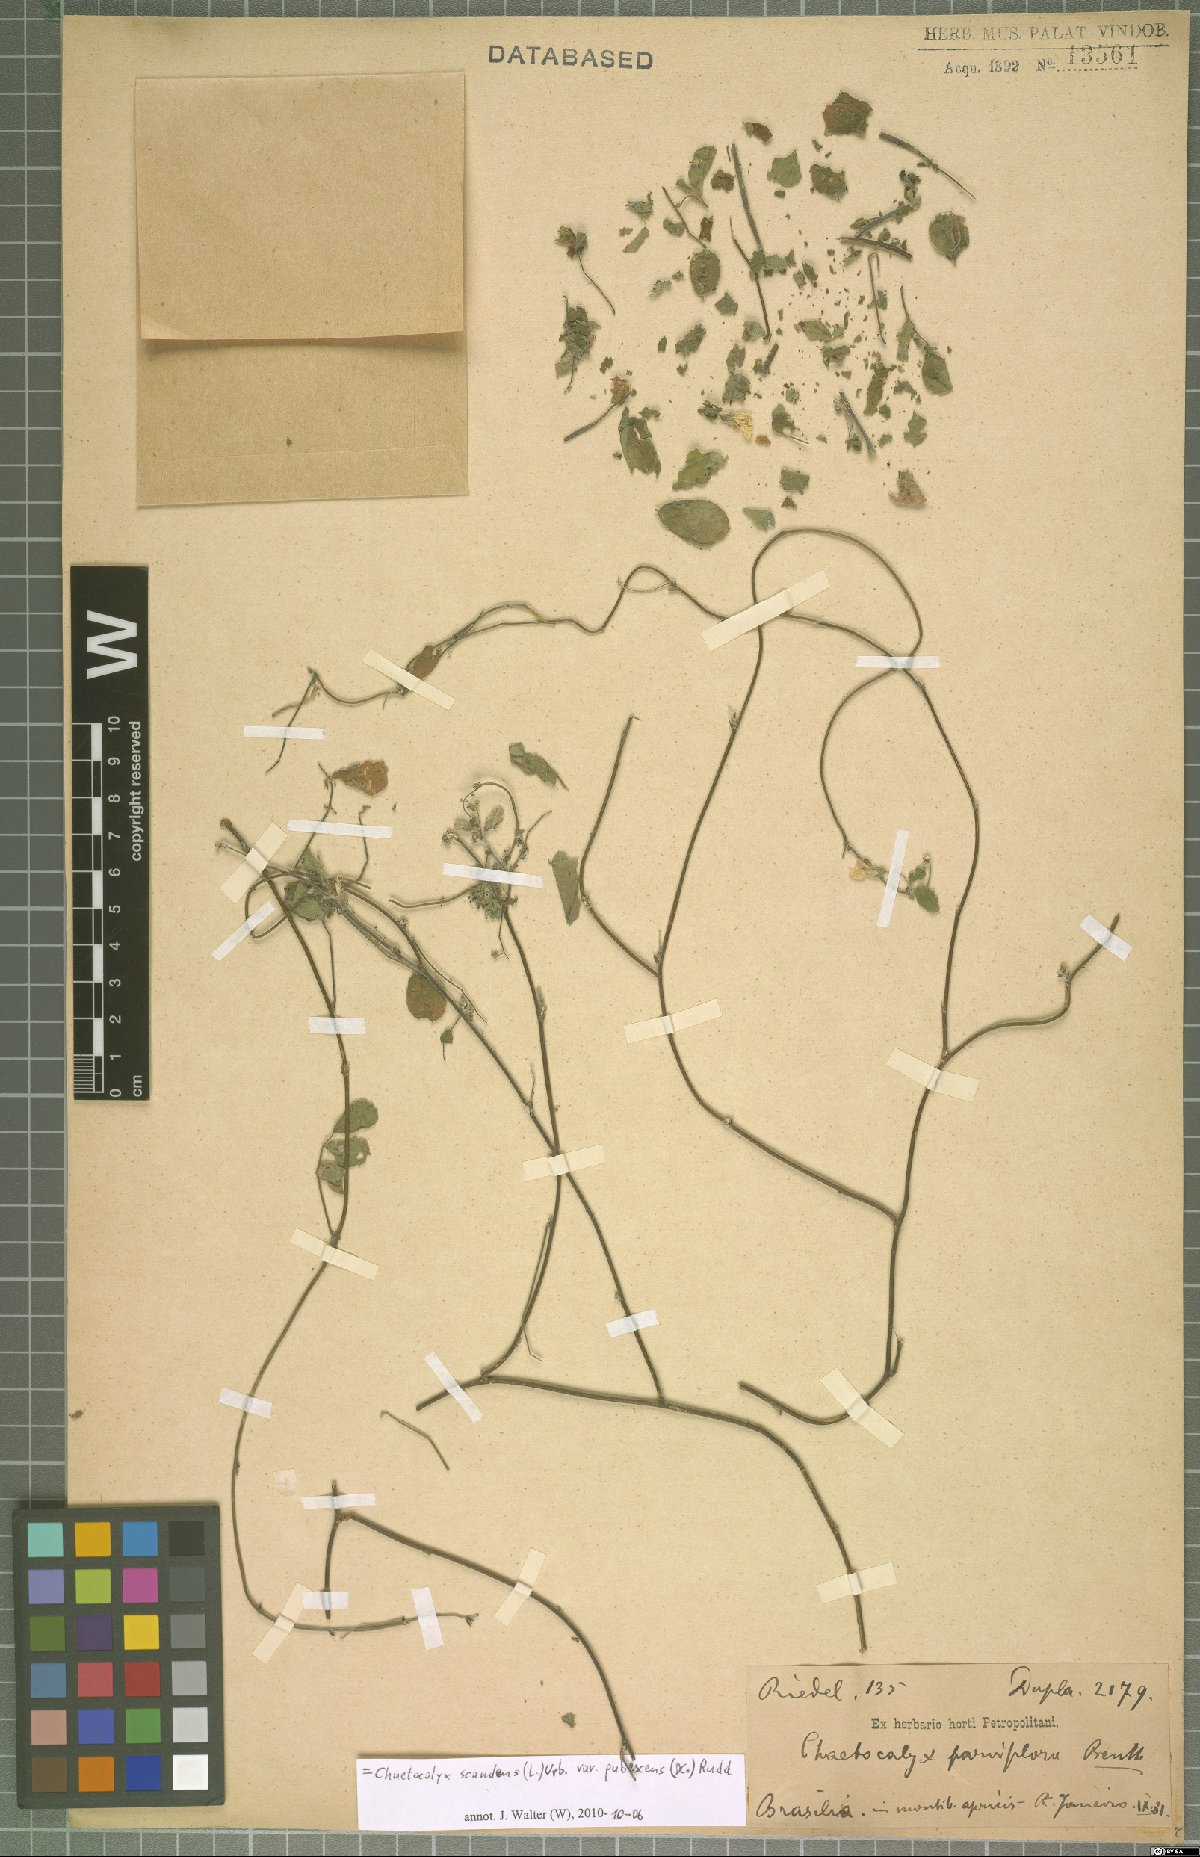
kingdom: Plantae
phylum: Tracheophyta
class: Magnoliopsida
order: Fabales
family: Fabaceae
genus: Nissolia
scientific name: Nissolia vincentina
